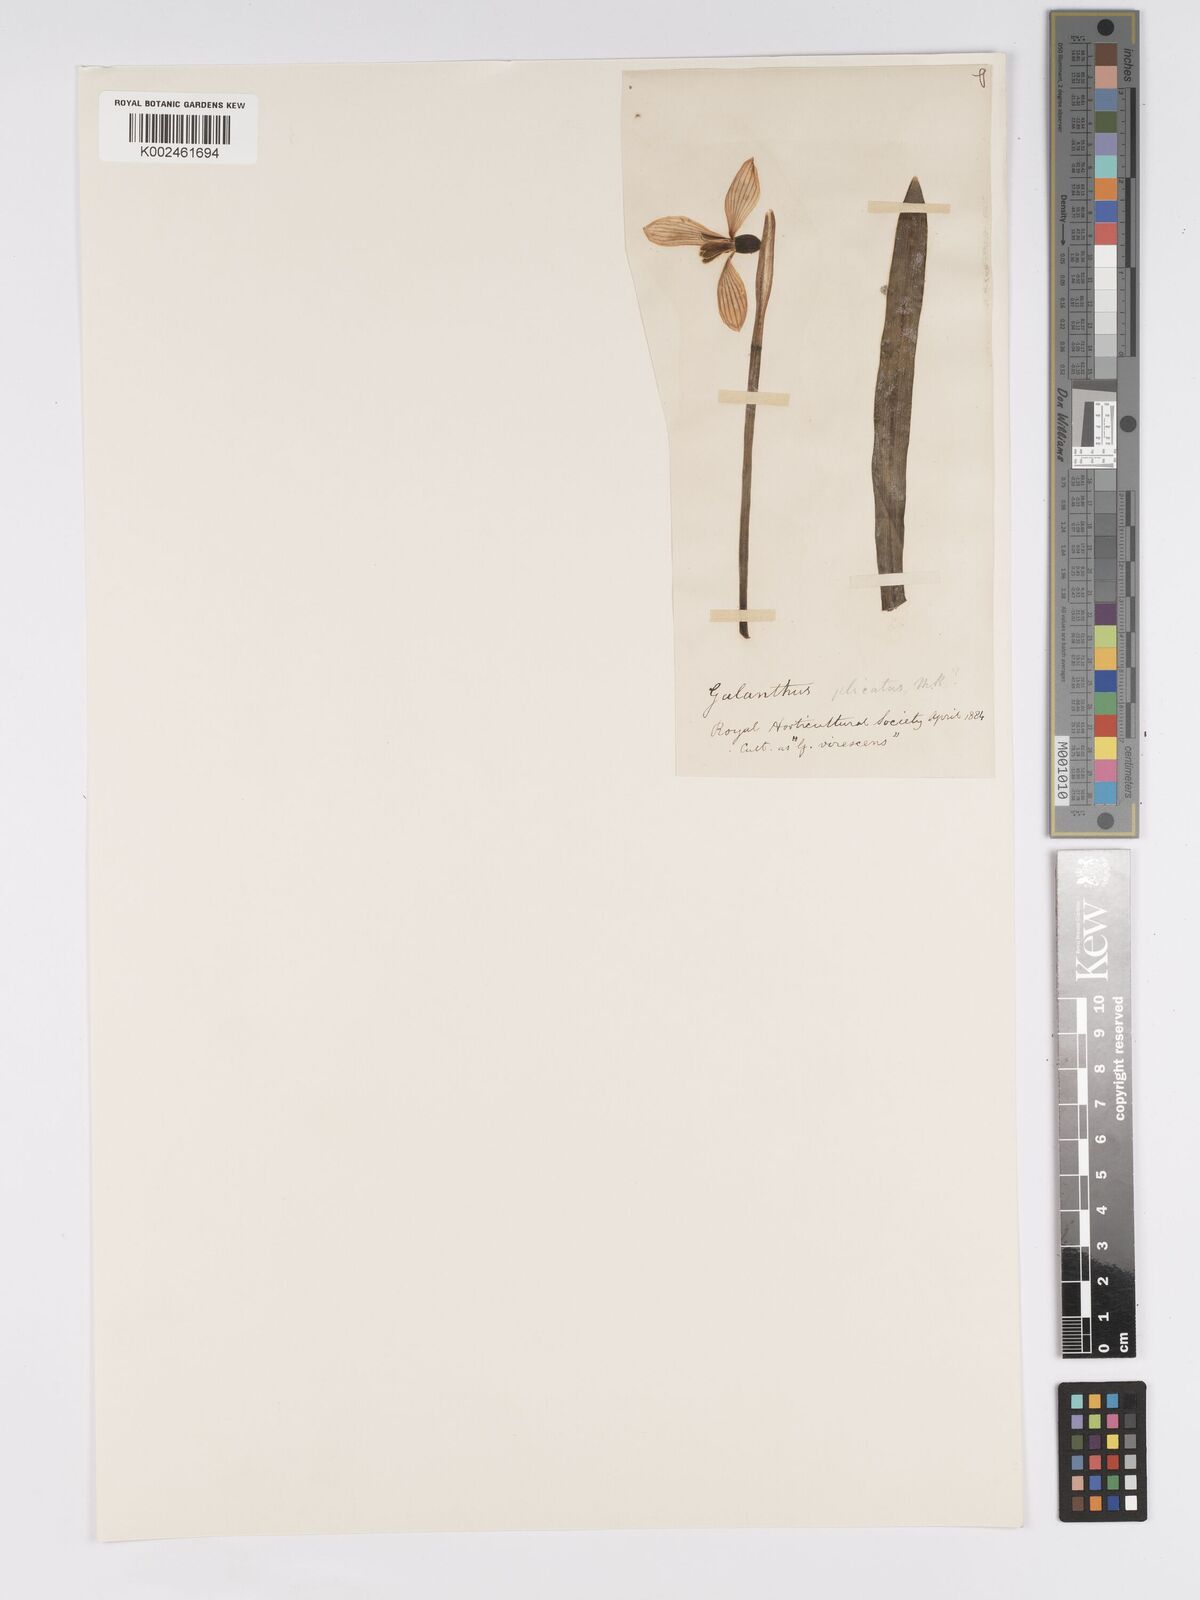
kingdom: Plantae
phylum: Tracheophyta
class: Liliopsida
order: Asparagales
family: Amaryllidaceae
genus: Galanthus
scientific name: Galanthus
